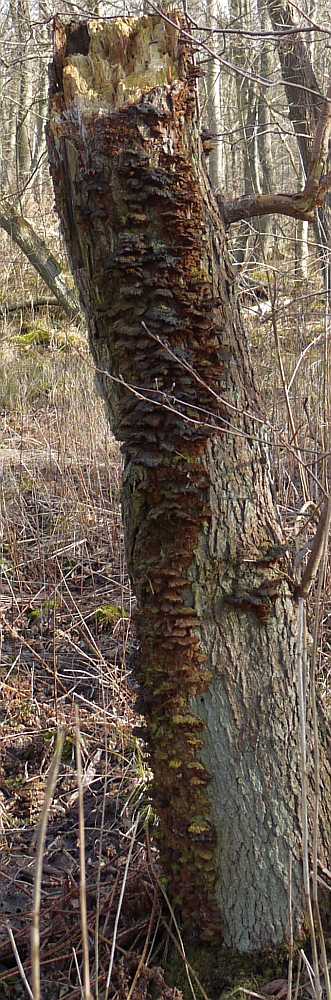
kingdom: Fungi
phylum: Basidiomycota
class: Agaricomycetes
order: Hymenochaetales
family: Hymenochaetaceae
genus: Xanthoporia
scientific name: Xanthoporia radiata
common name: elle-spejlporesvamp
